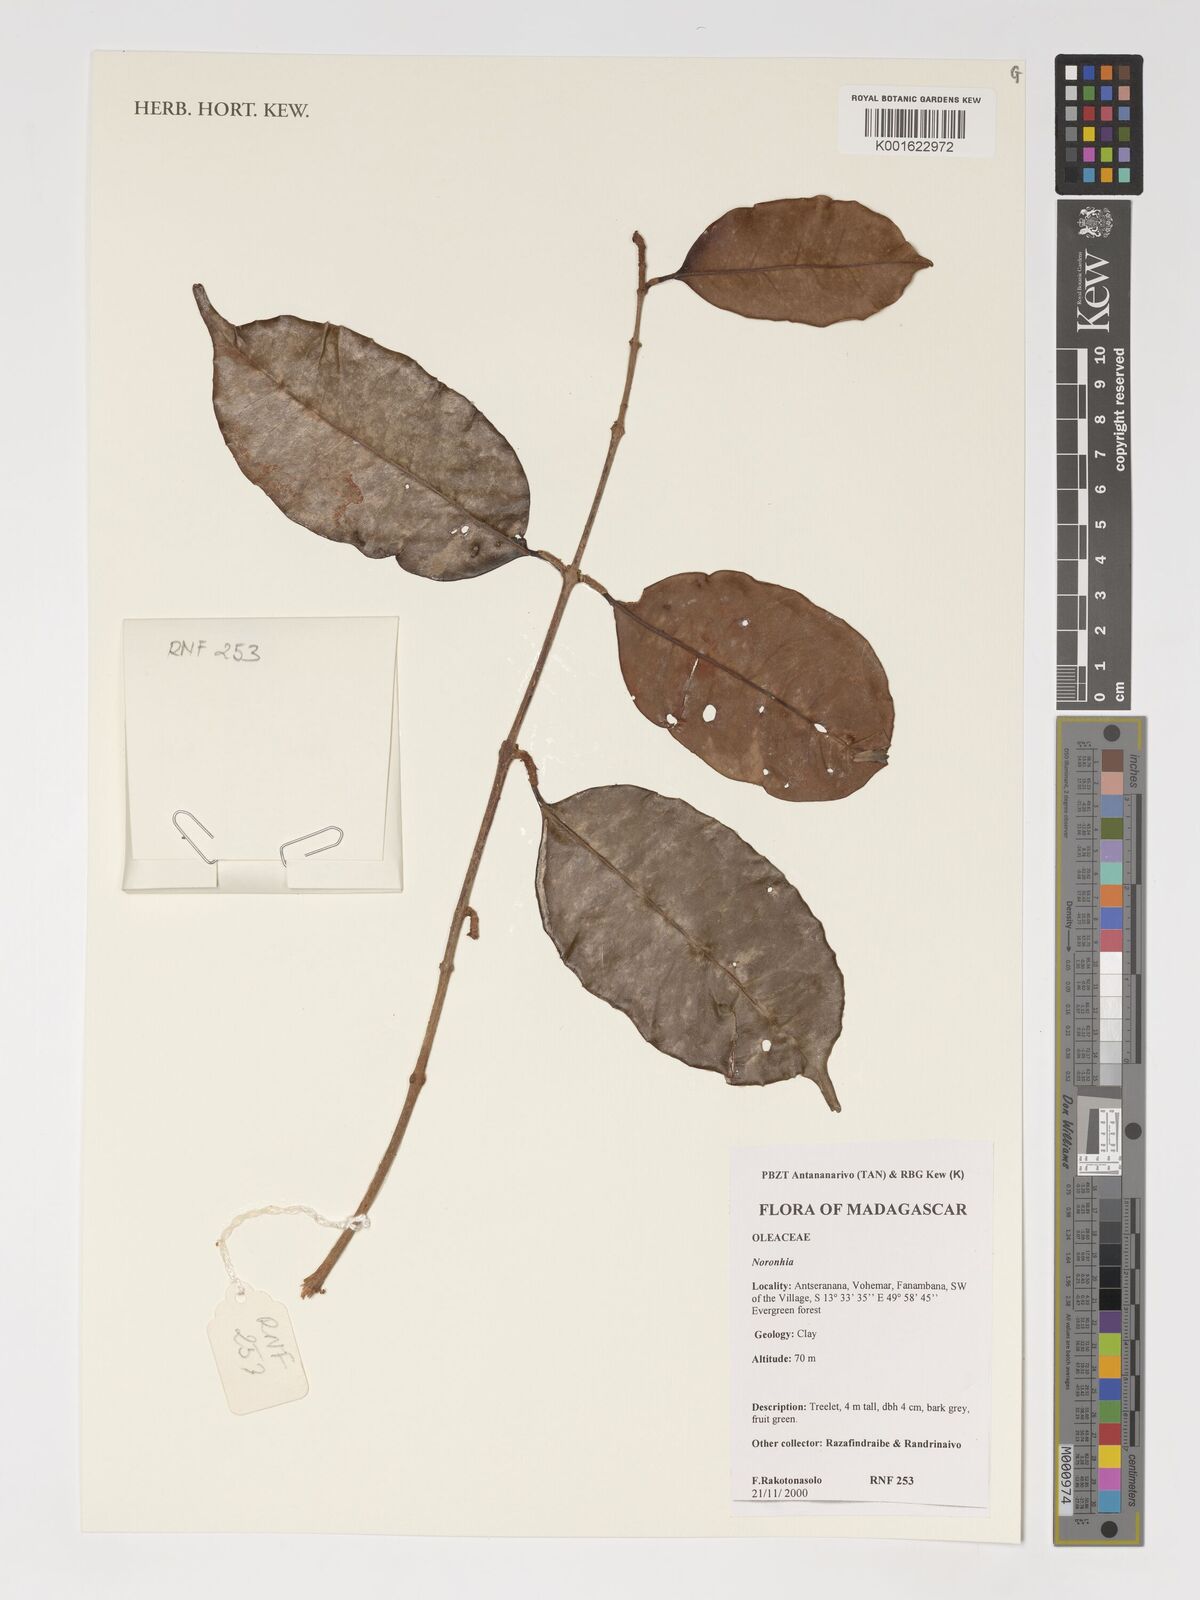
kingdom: Plantae
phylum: Tracheophyta
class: Magnoliopsida
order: Lamiales
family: Oleaceae
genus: Noronhia
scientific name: Noronhia
